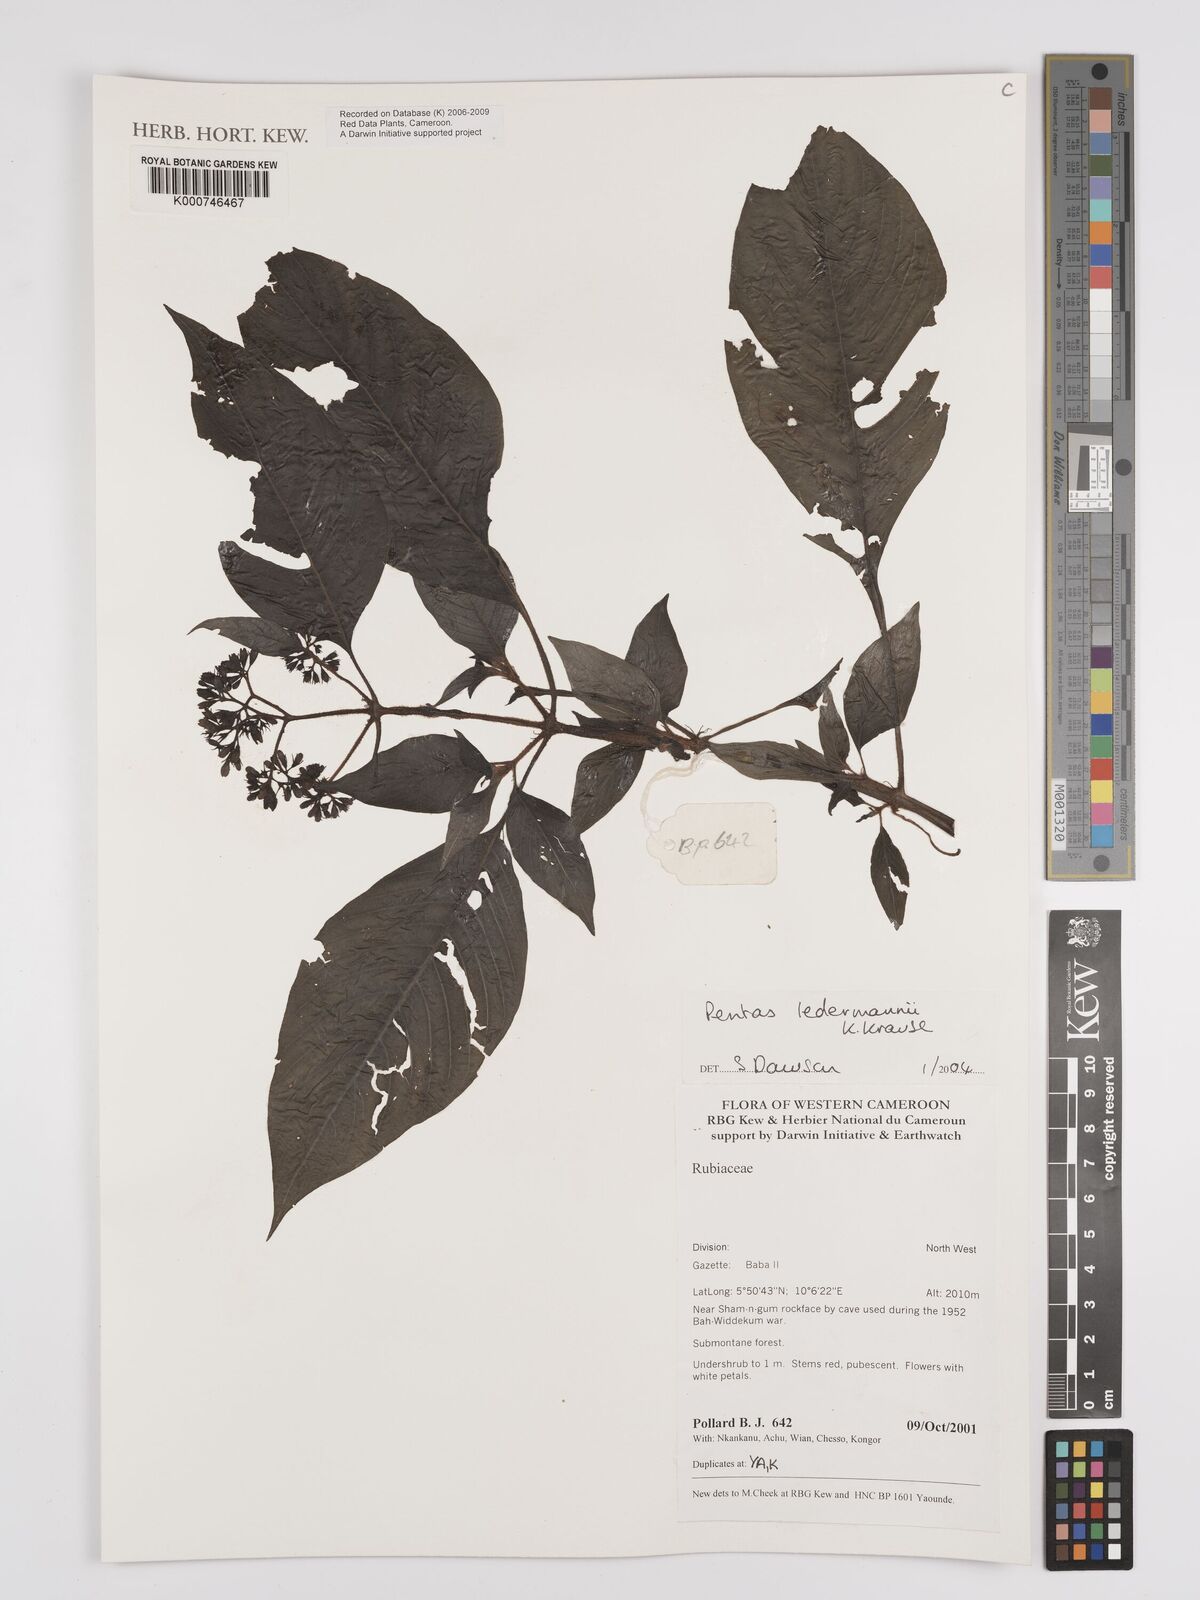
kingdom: Plantae
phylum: Tracheophyta
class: Magnoliopsida
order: Gentianales
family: Rubiaceae
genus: Phyllopentas
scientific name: Phyllopentas ledermannii
